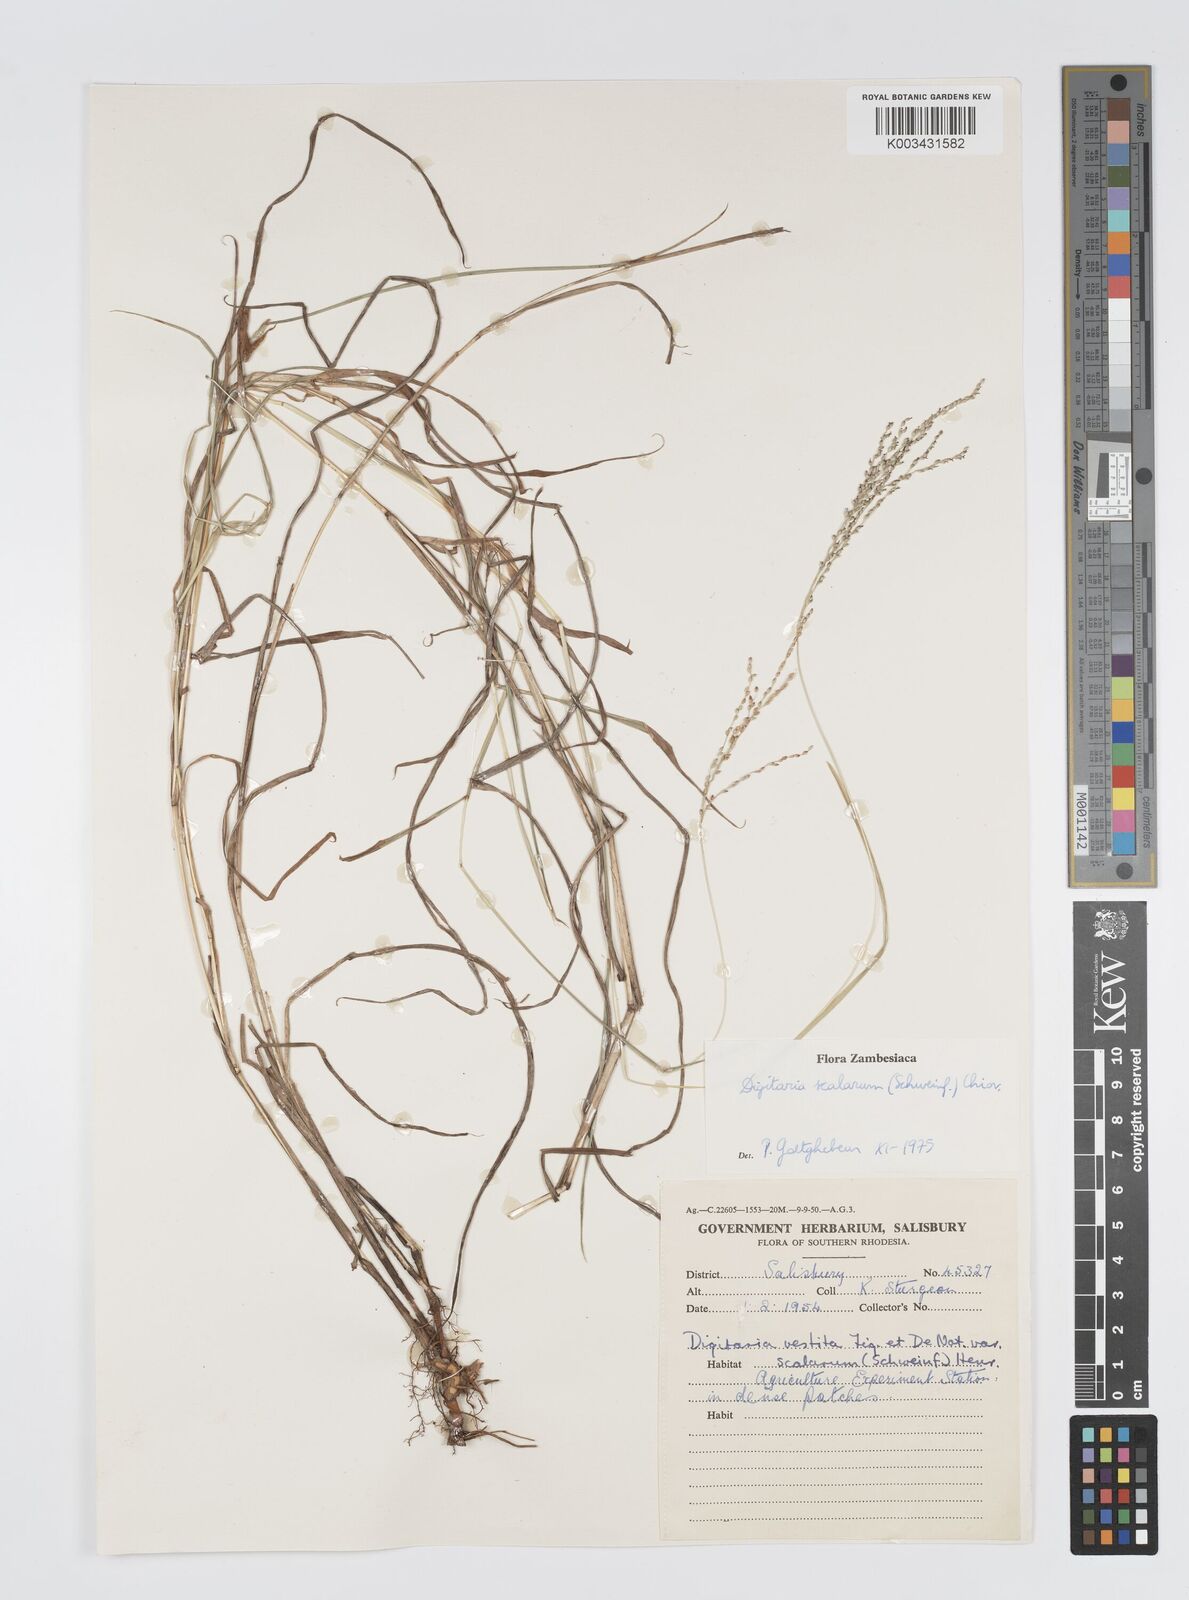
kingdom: Plantae
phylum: Tracheophyta
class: Liliopsida
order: Poales
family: Poaceae
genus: Digitaria
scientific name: Digitaria abyssinica
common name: African couchgrass
